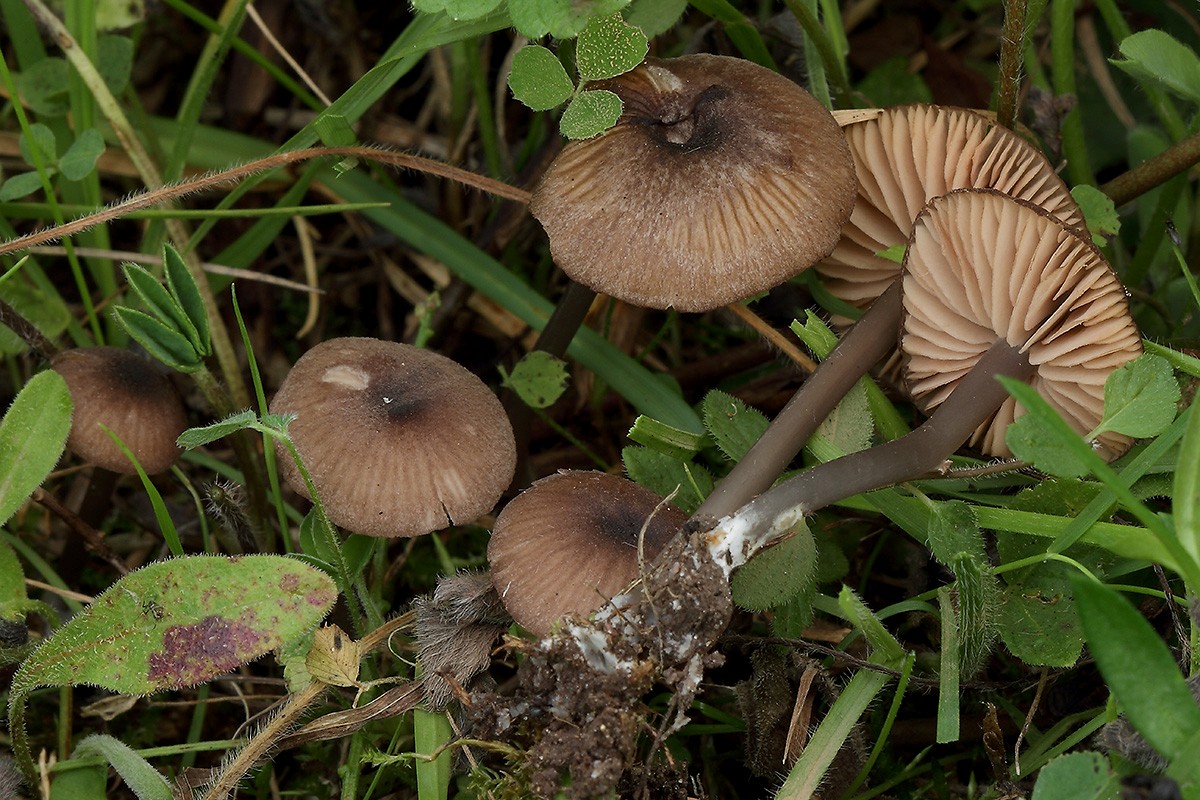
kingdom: Fungi
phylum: Basidiomycota
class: Agaricomycetes
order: Agaricales
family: Entolomataceae
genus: Entoloma
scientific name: Entoloma brunneoserrulatum
